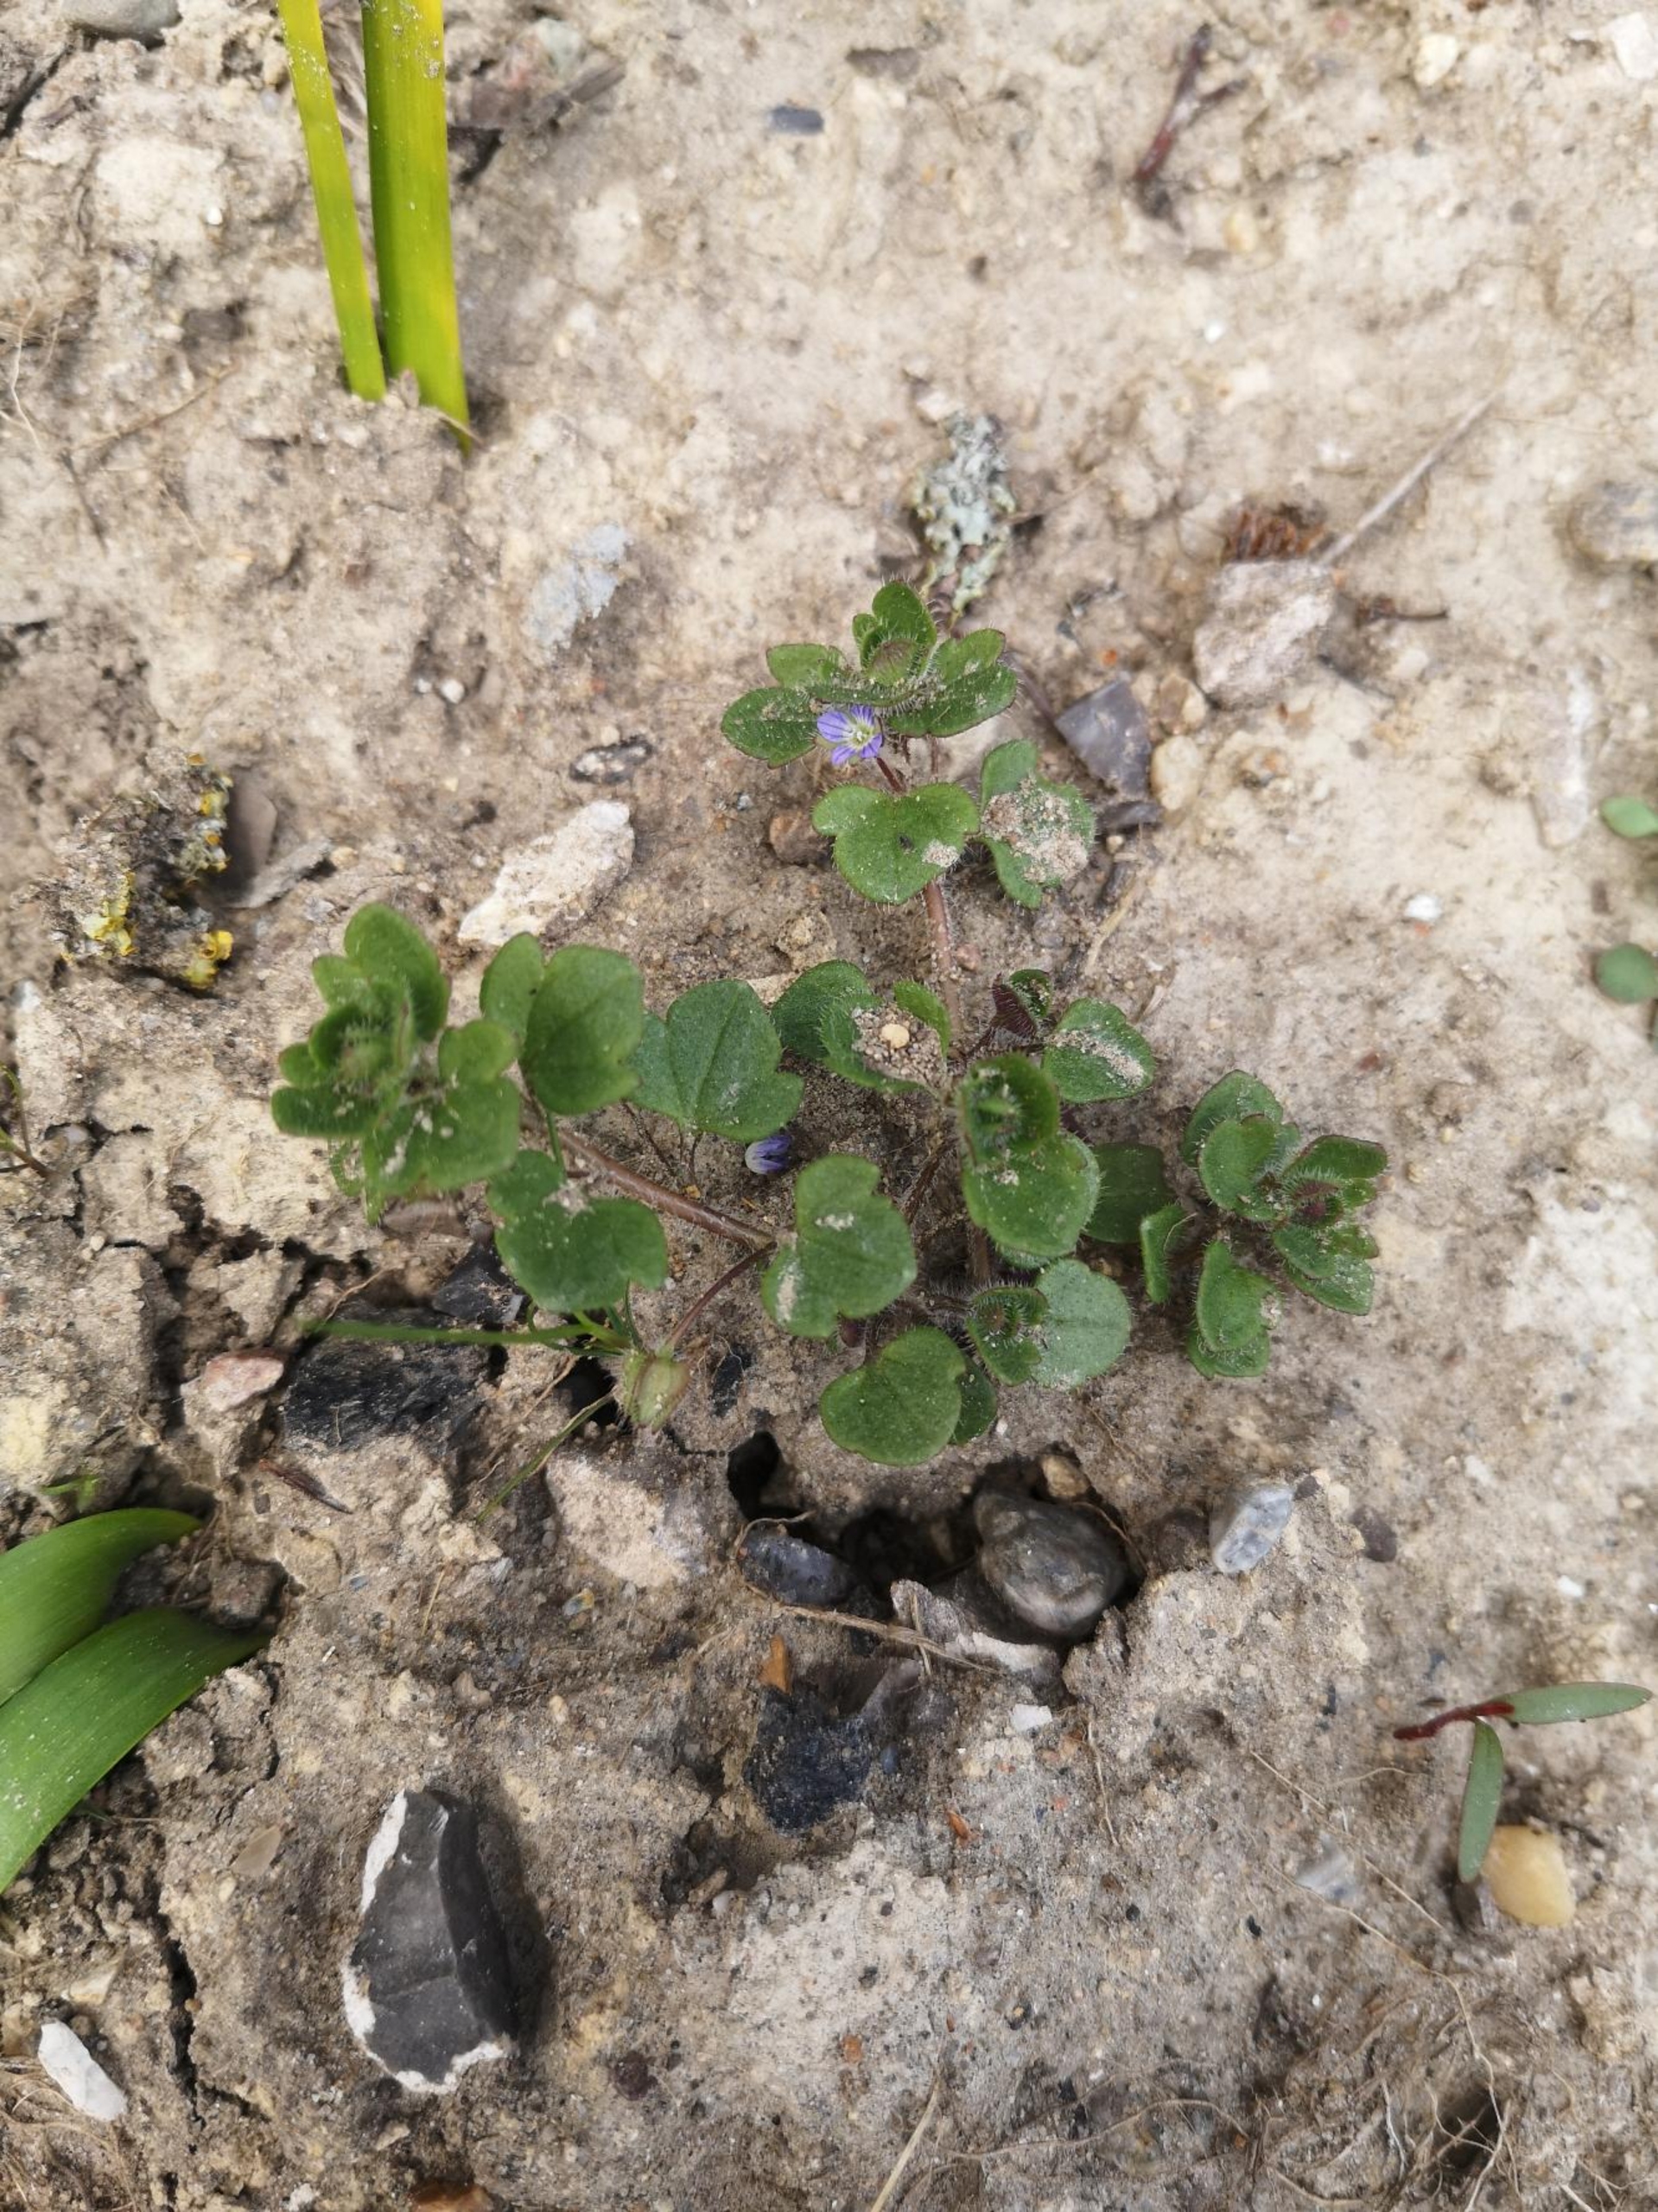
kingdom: Plantae
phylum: Tracheophyta
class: Magnoliopsida
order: Lamiales
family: Plantaginaceae
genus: Veronica
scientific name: Veronica hederifolia
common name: Vedbend-ærenpris
